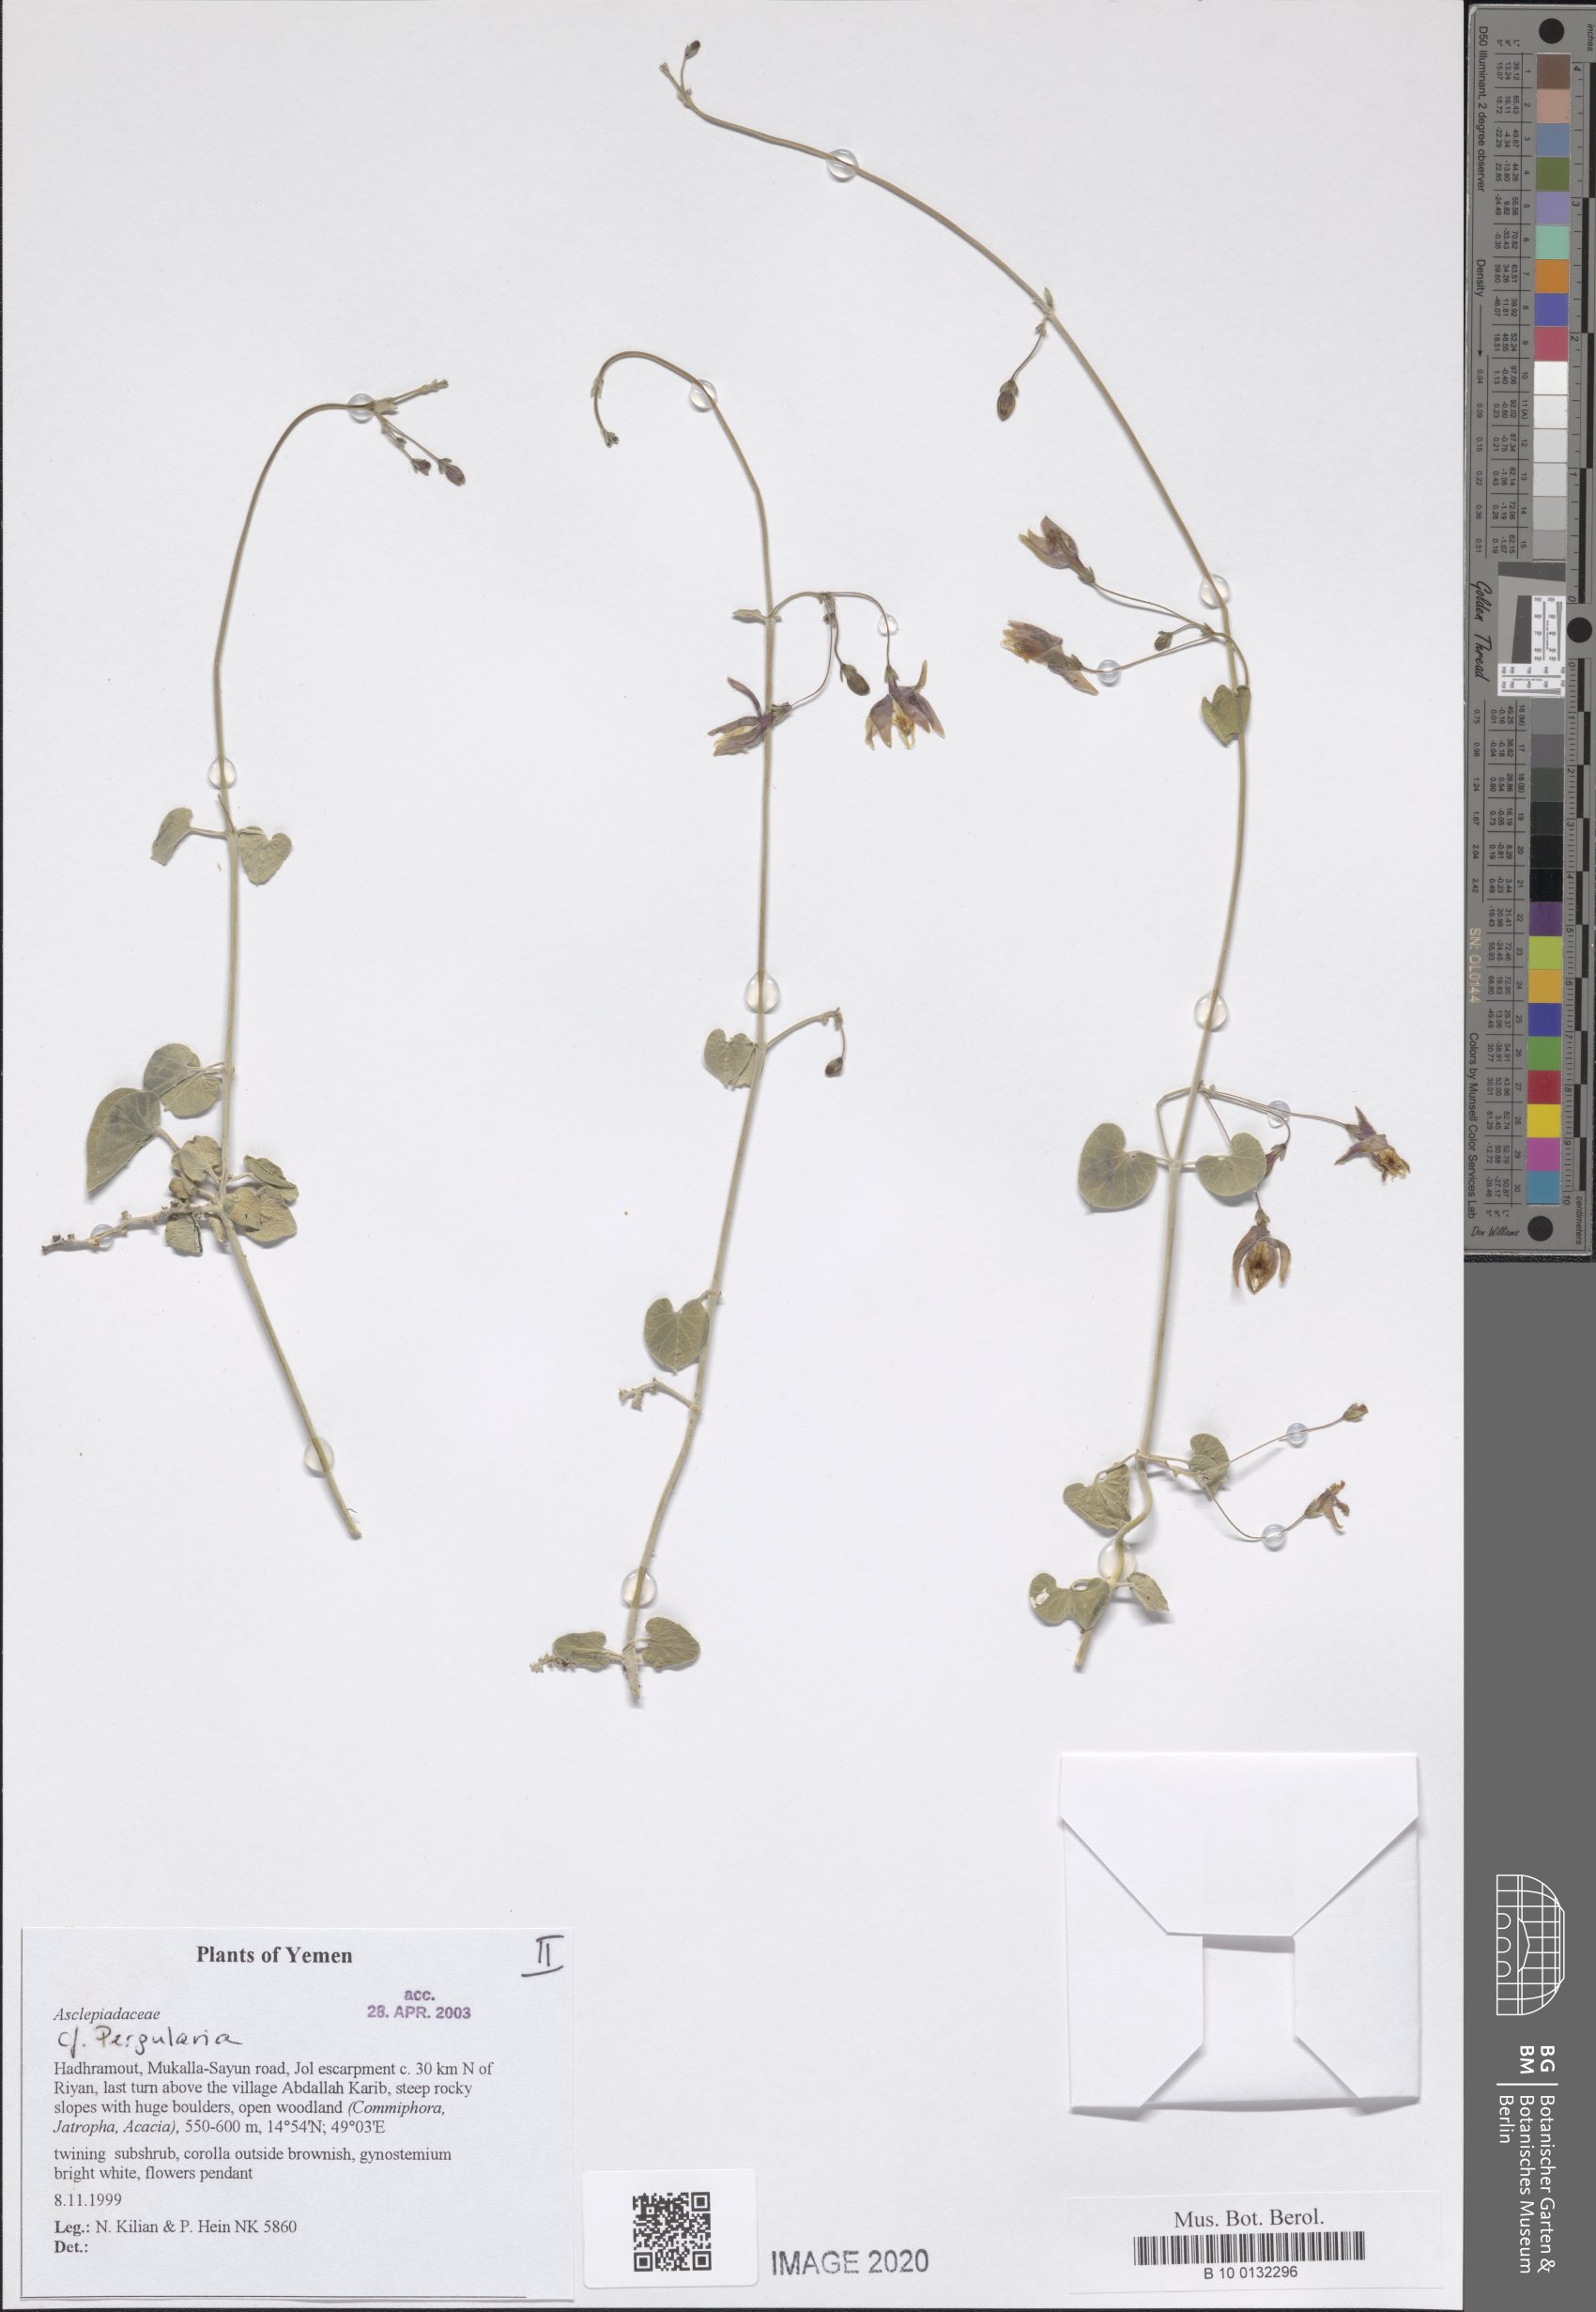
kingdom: Plantae
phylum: Tracheophyta
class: Magnoliopsida
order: Gentianales
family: Apocynaceae
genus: Pergularia
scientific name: Pergularia tomentosa
